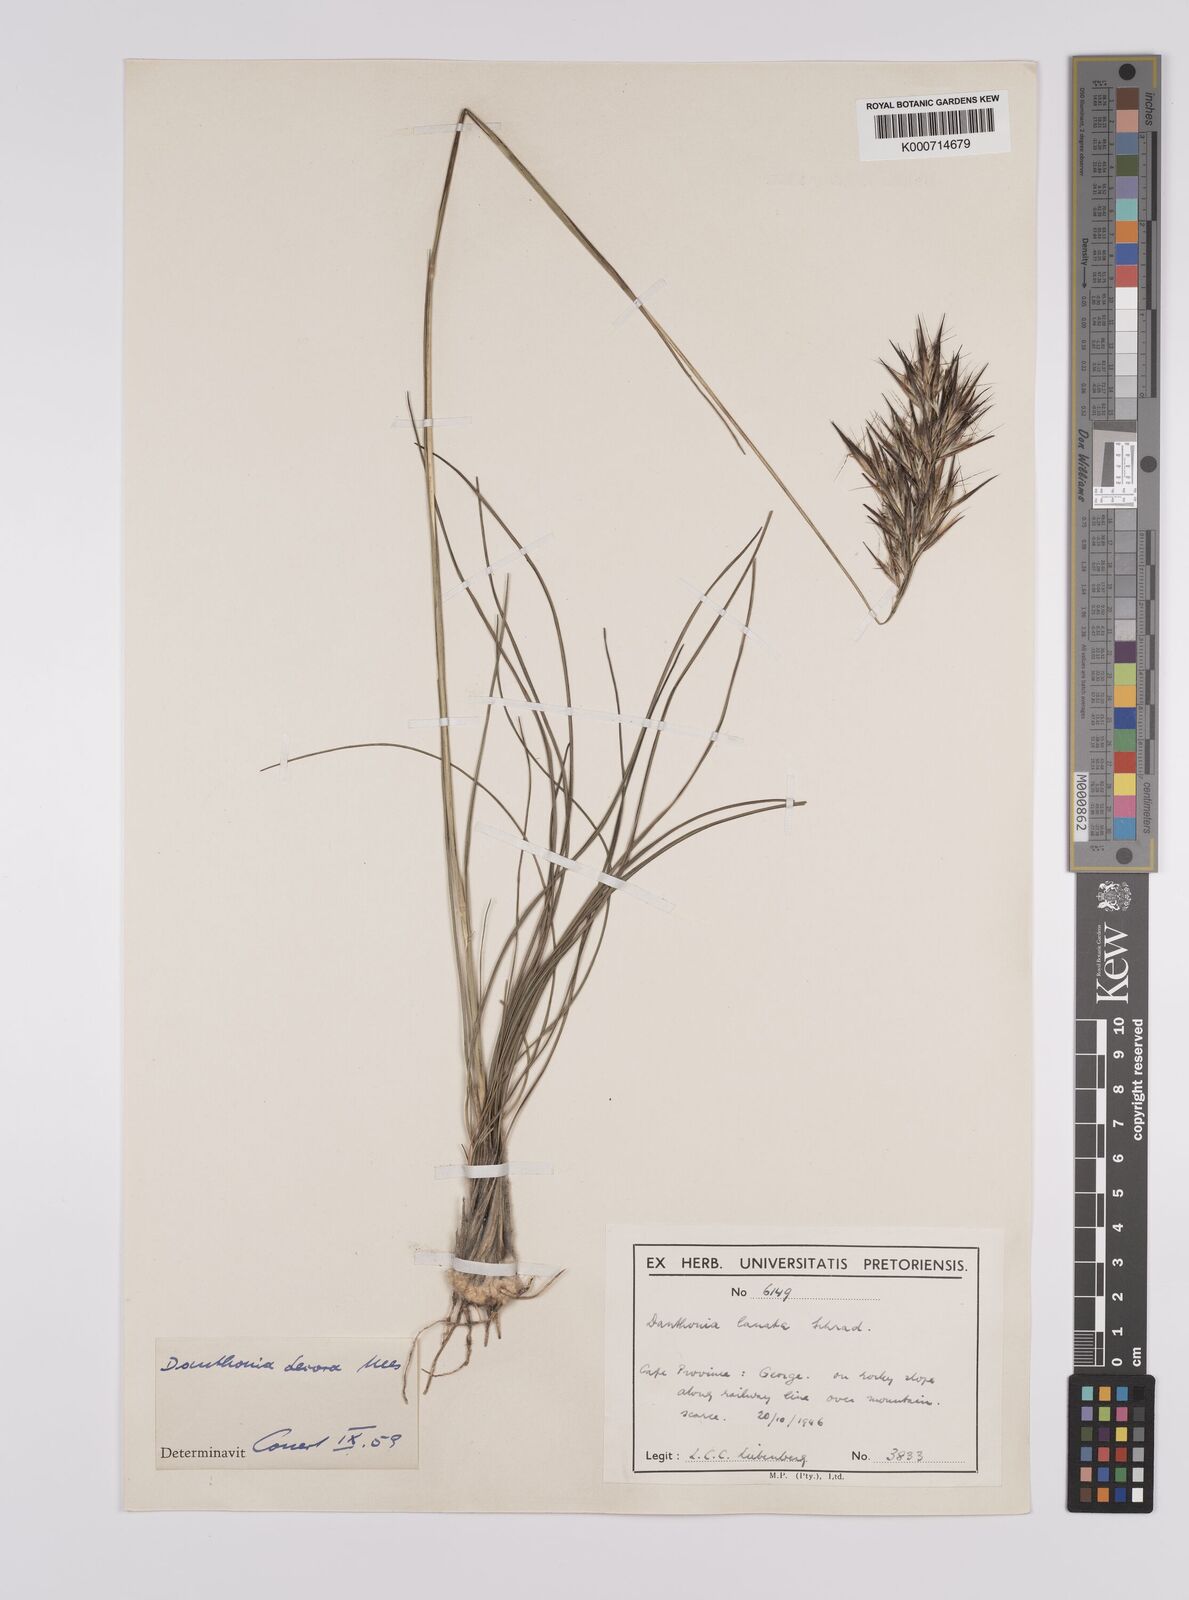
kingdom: Plantae
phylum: Tracheophyta
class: Liliopsida
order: Poales
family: Poaceae
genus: Rytidosperma
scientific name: Rytidosperma
